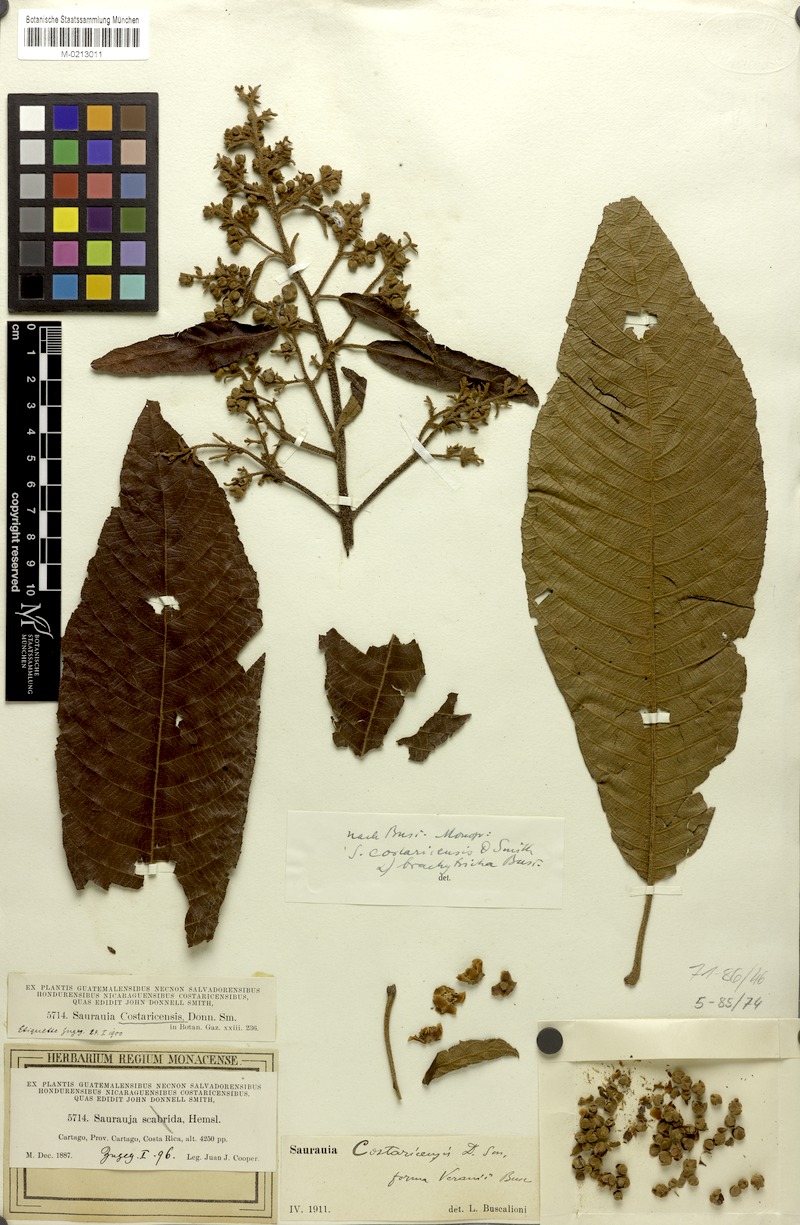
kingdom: Plantae
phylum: Tracheophyta
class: Magnoliopsida
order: Ericales
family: Actinidiaceae
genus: Saurauia
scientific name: Saurauia montana
